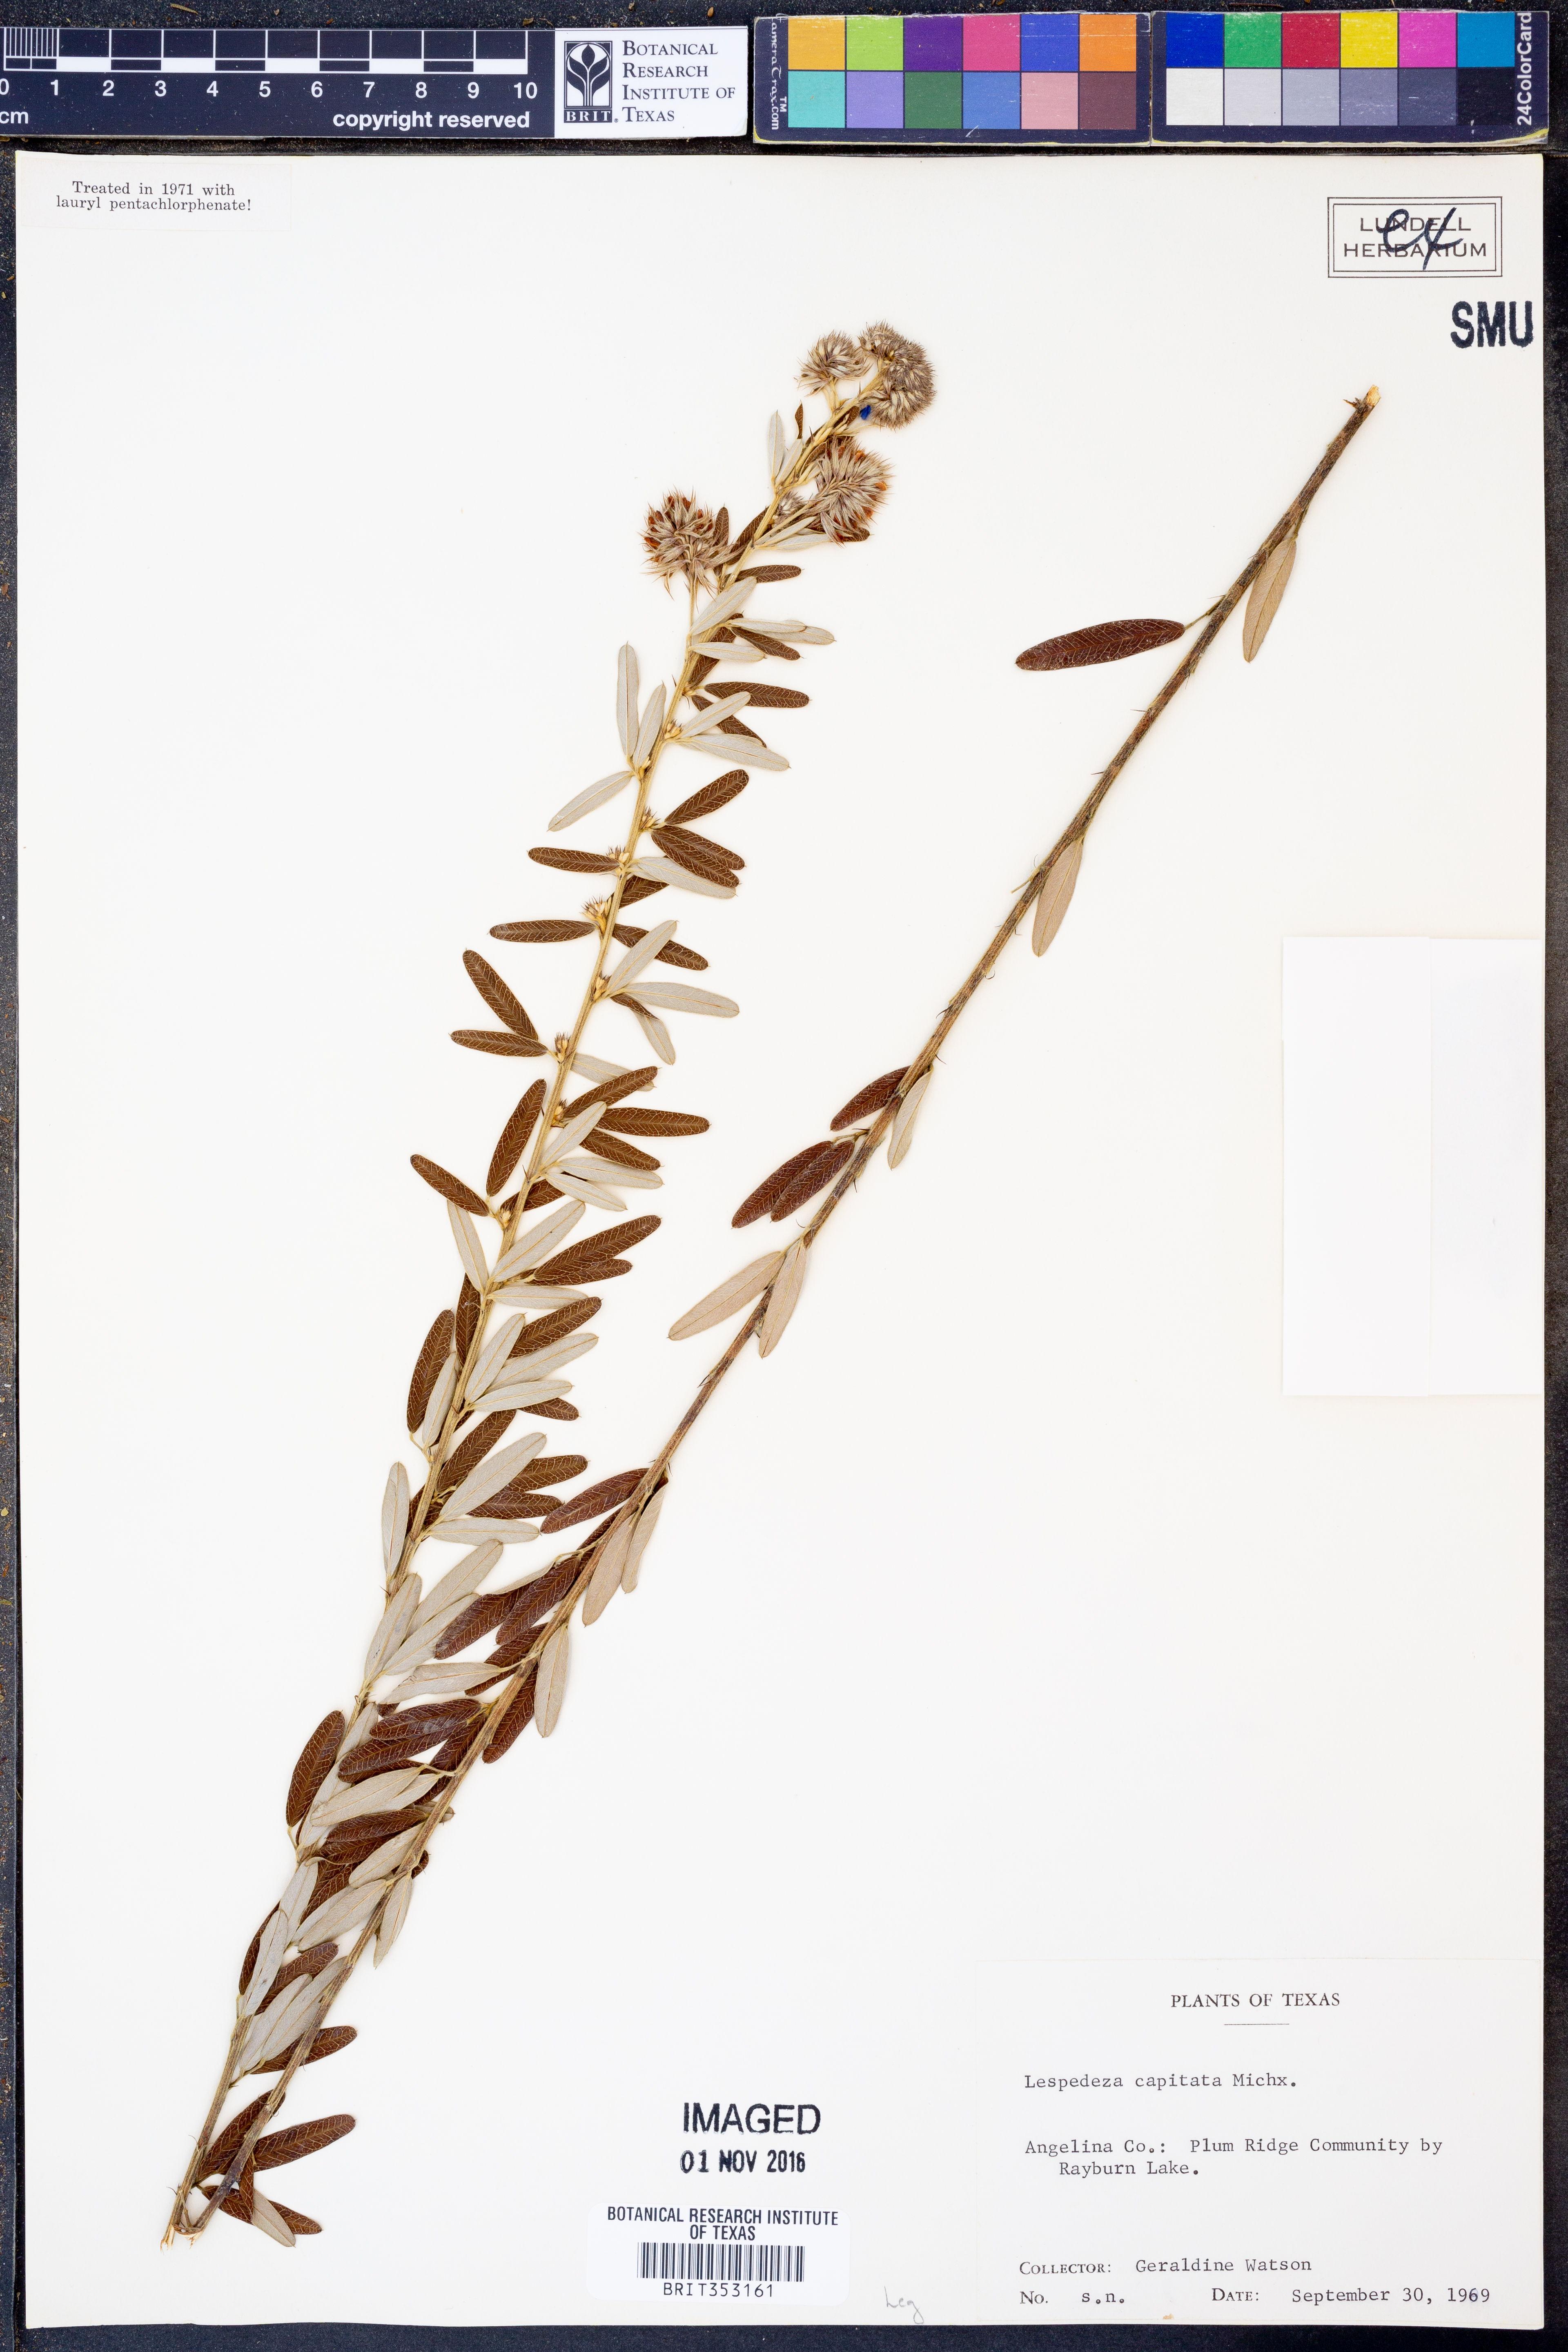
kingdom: Plantae
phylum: Tracheophyta
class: Magnoliopsida
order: Fabales
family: Fabaceae
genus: Lespedeza
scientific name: Lespedeza capitata
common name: Dusty clover
